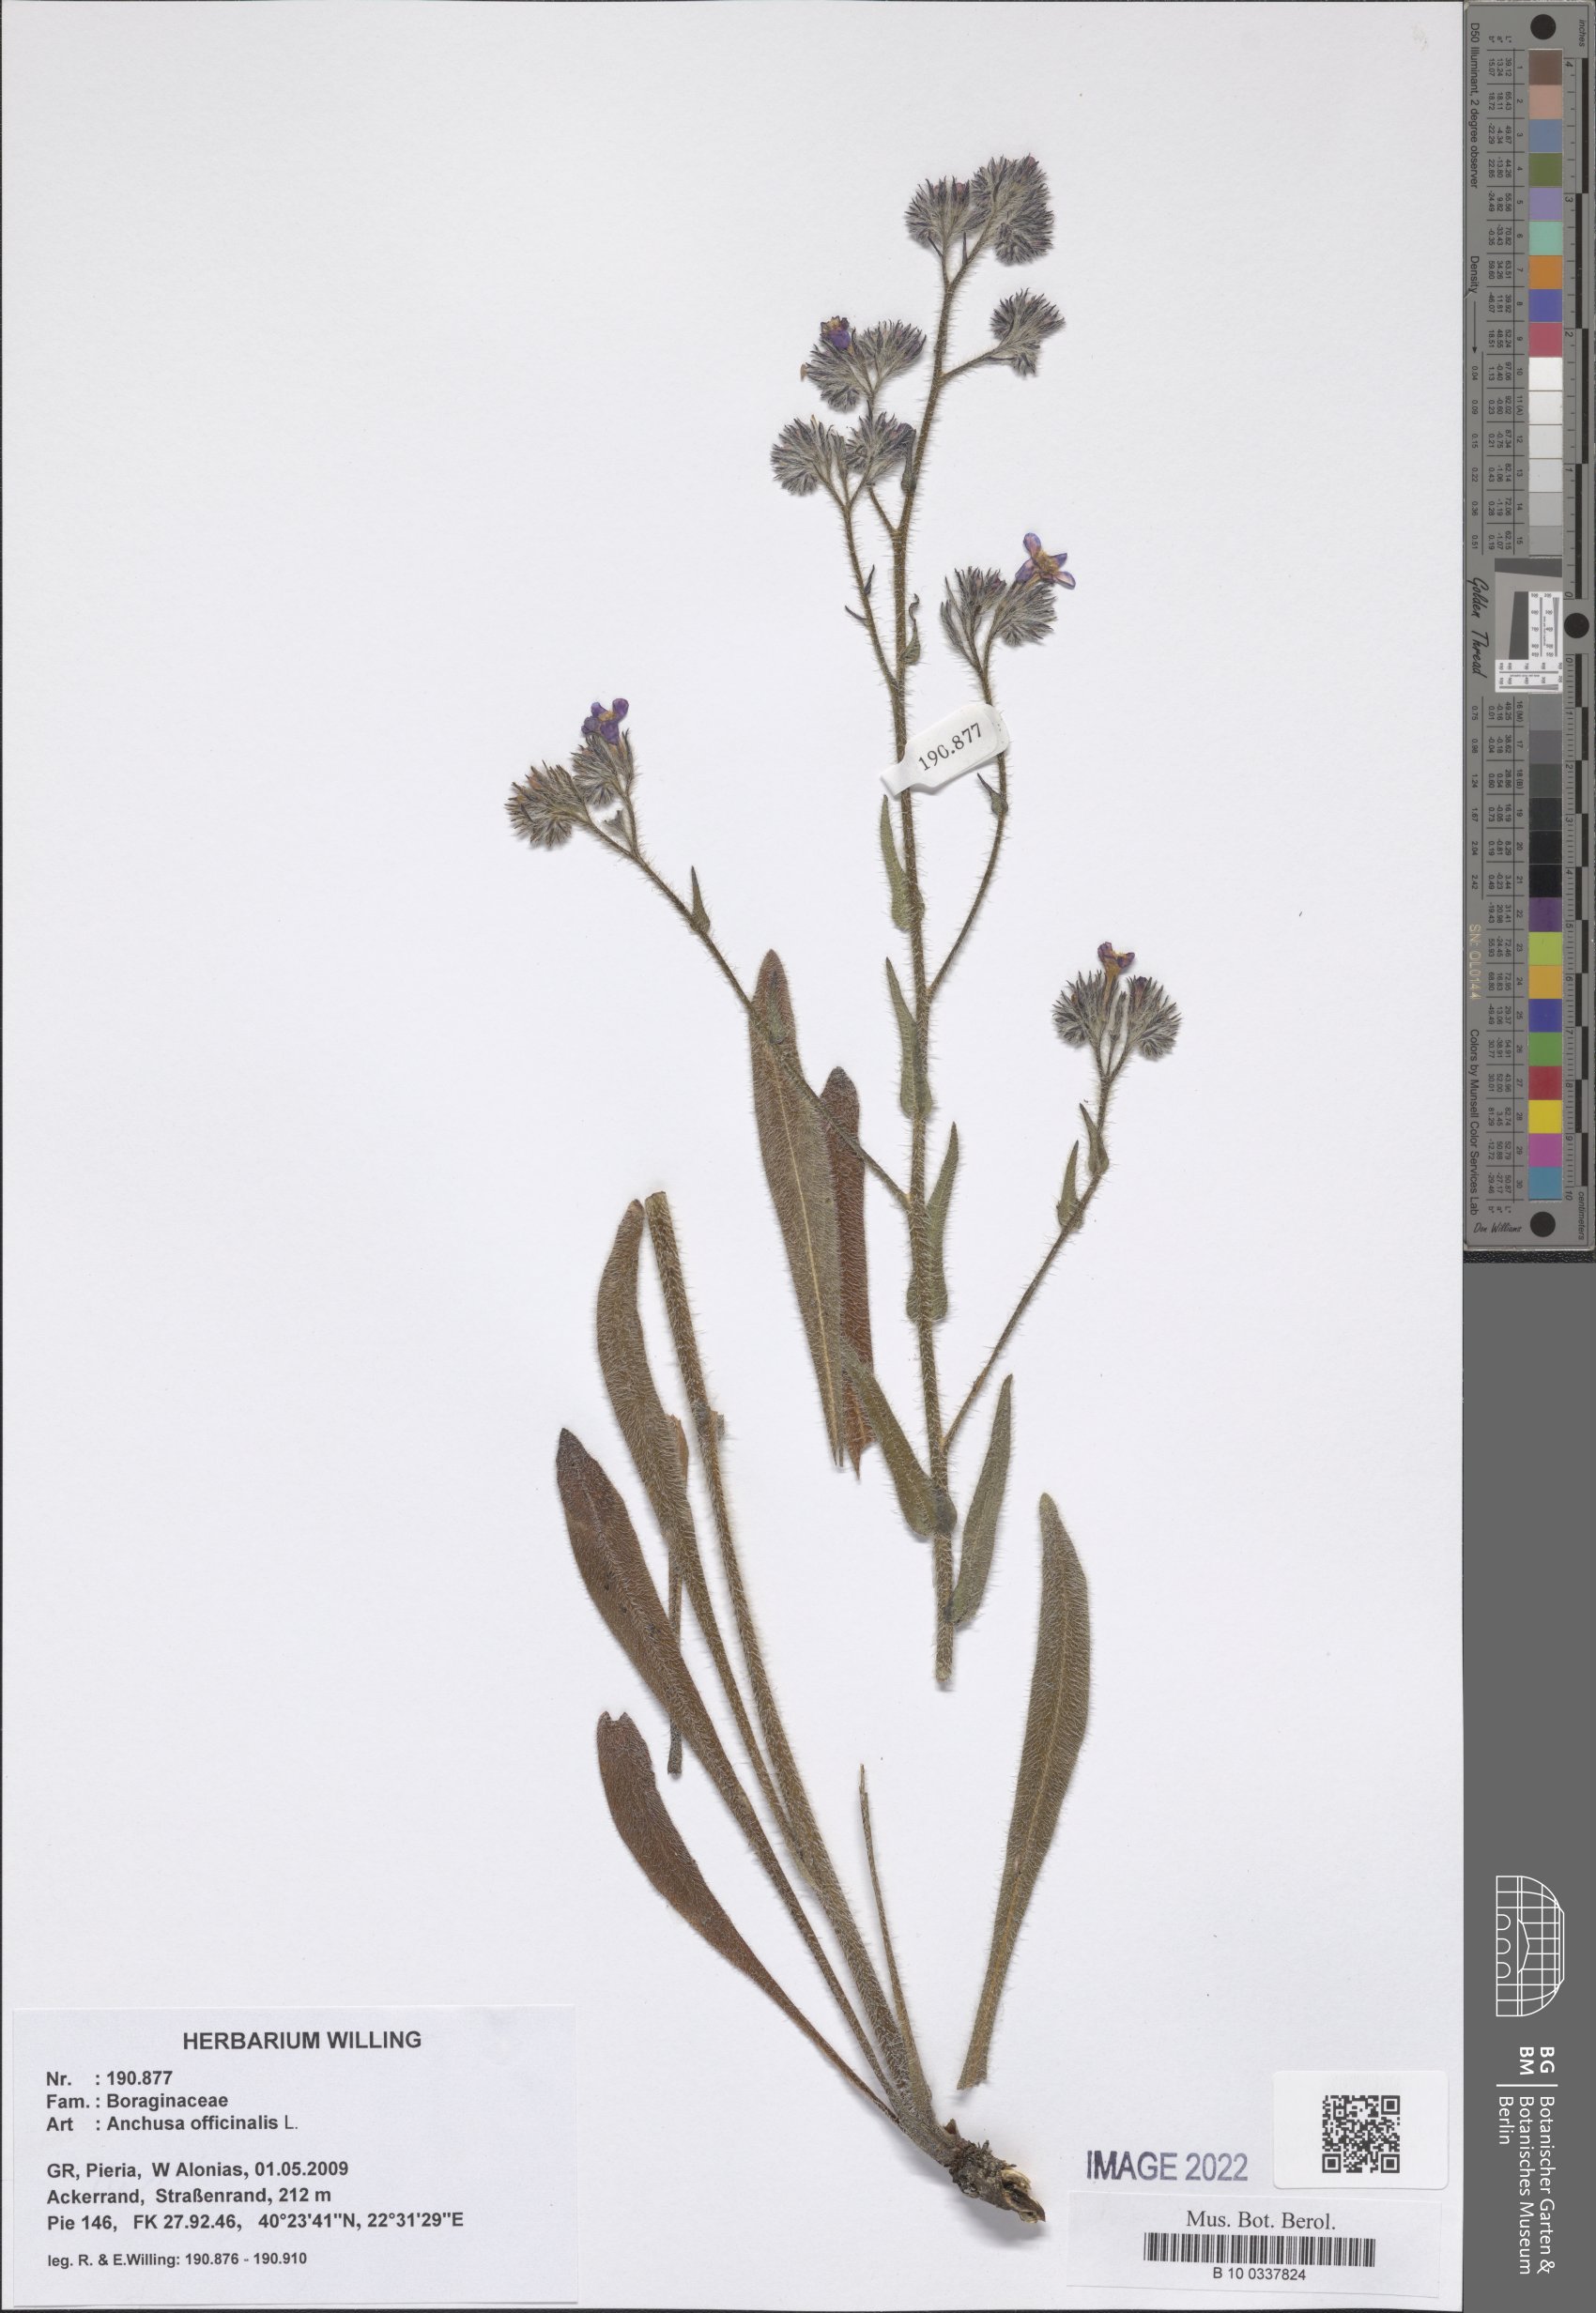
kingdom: Plantae
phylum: Tracheophyta
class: Magnoliopsida
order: Boraginales
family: Boraginaceae
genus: Anchusa
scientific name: Anchusa officinalis
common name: Alkanet
